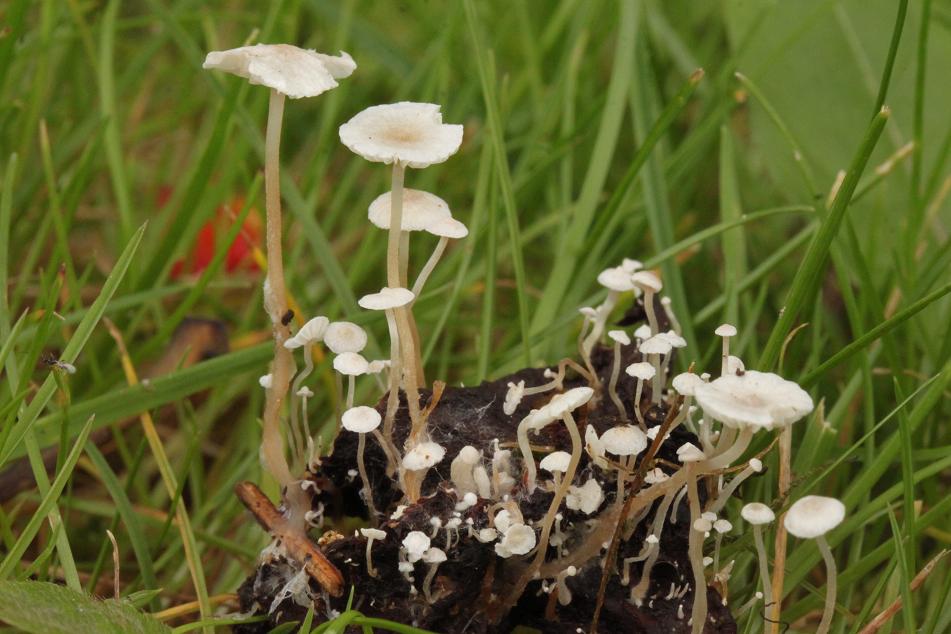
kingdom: Fungi
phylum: Basidiomycota
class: Agaricomycetes
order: Agaricales
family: Tricholomataceae
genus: Collybia
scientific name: Collybia cirrhata
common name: silke-lighat
